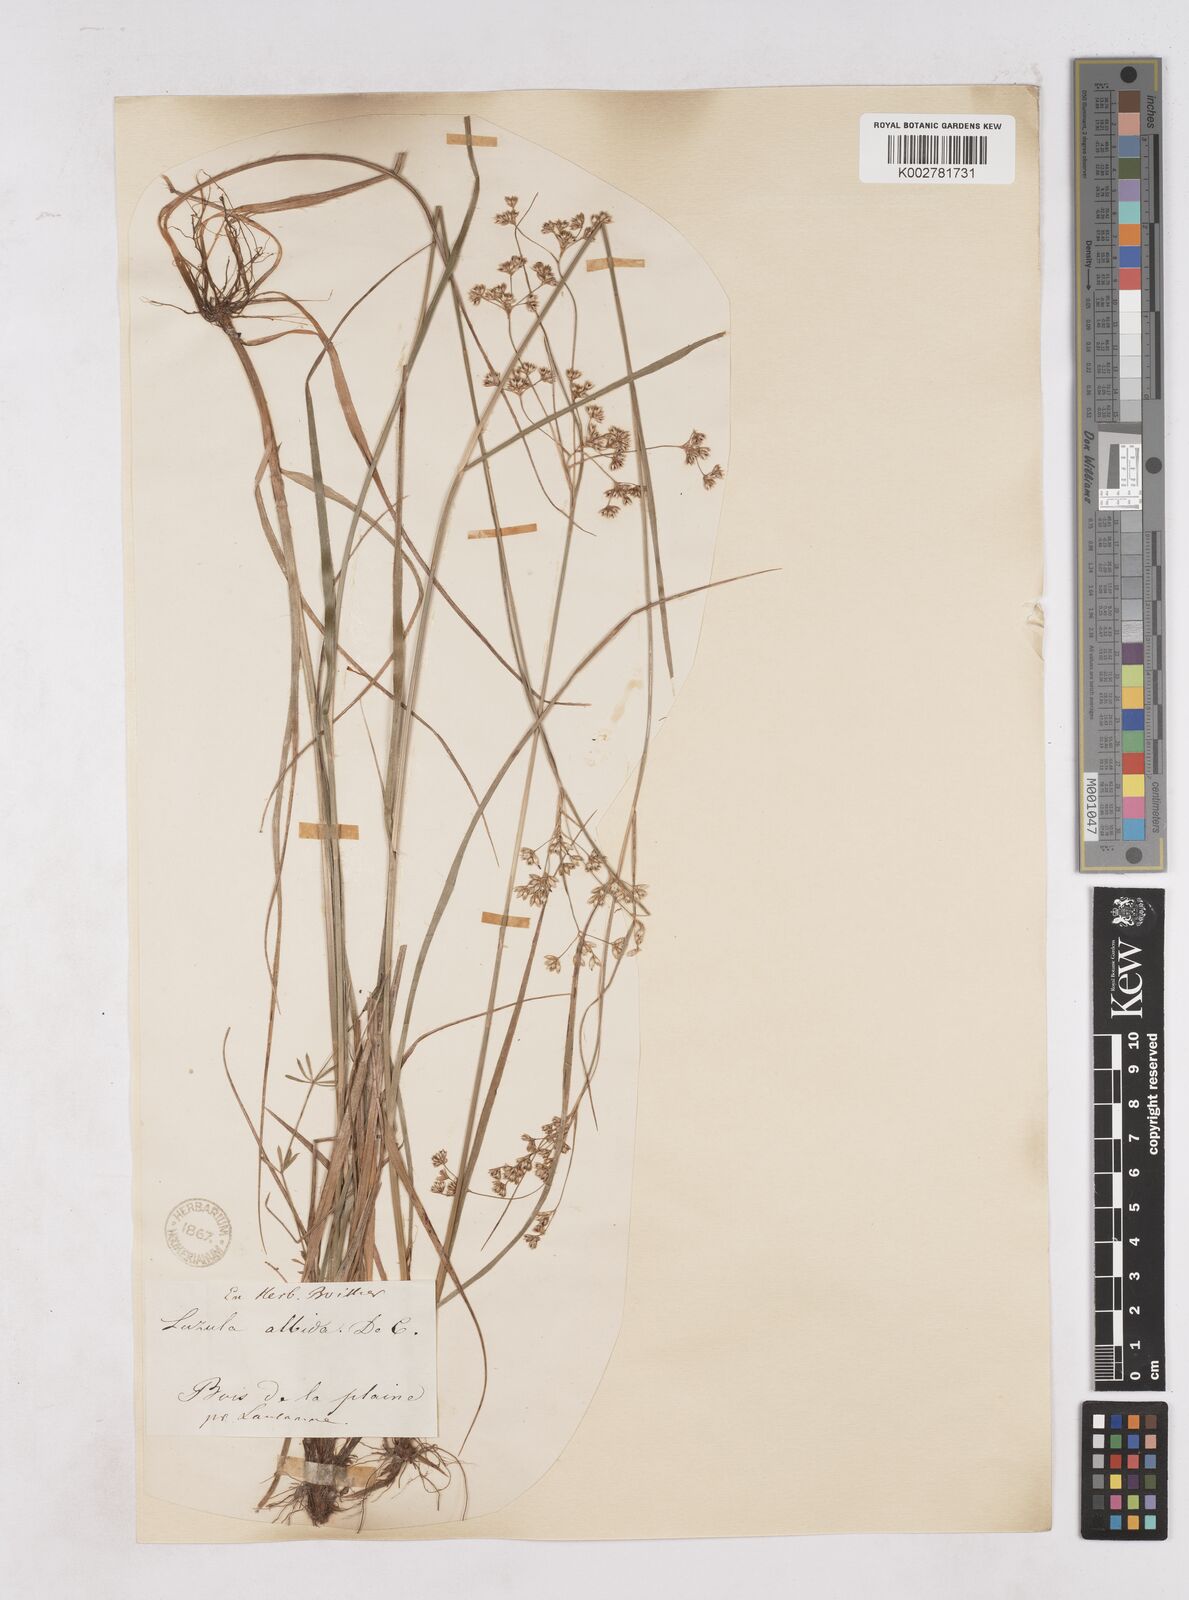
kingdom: Plantae
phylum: Tracheophyta
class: Liliopsida
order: Poales
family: Juncaceae
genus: Luzula
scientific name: Luzula luzuloides
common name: White wood-rush
